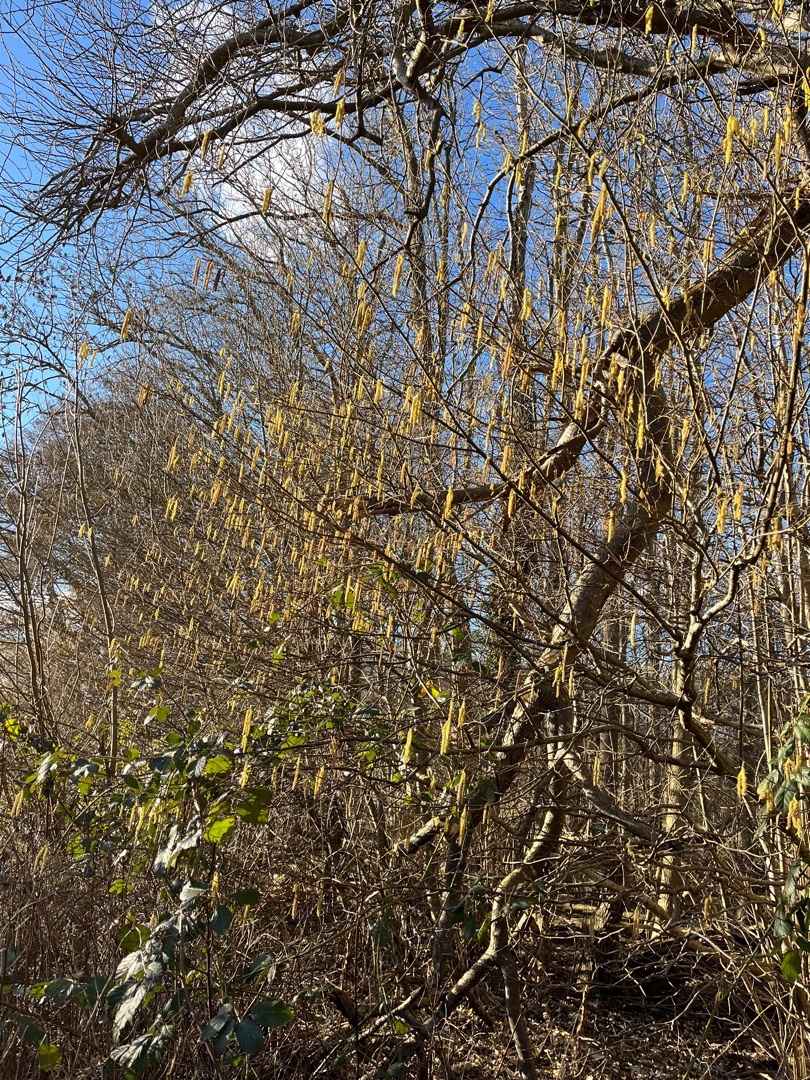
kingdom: Plantae
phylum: Tracheophyta
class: Magnoliopsida
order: Fagales
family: Betulaceae
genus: Corylus
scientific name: Corylus avellana
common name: Hassel
